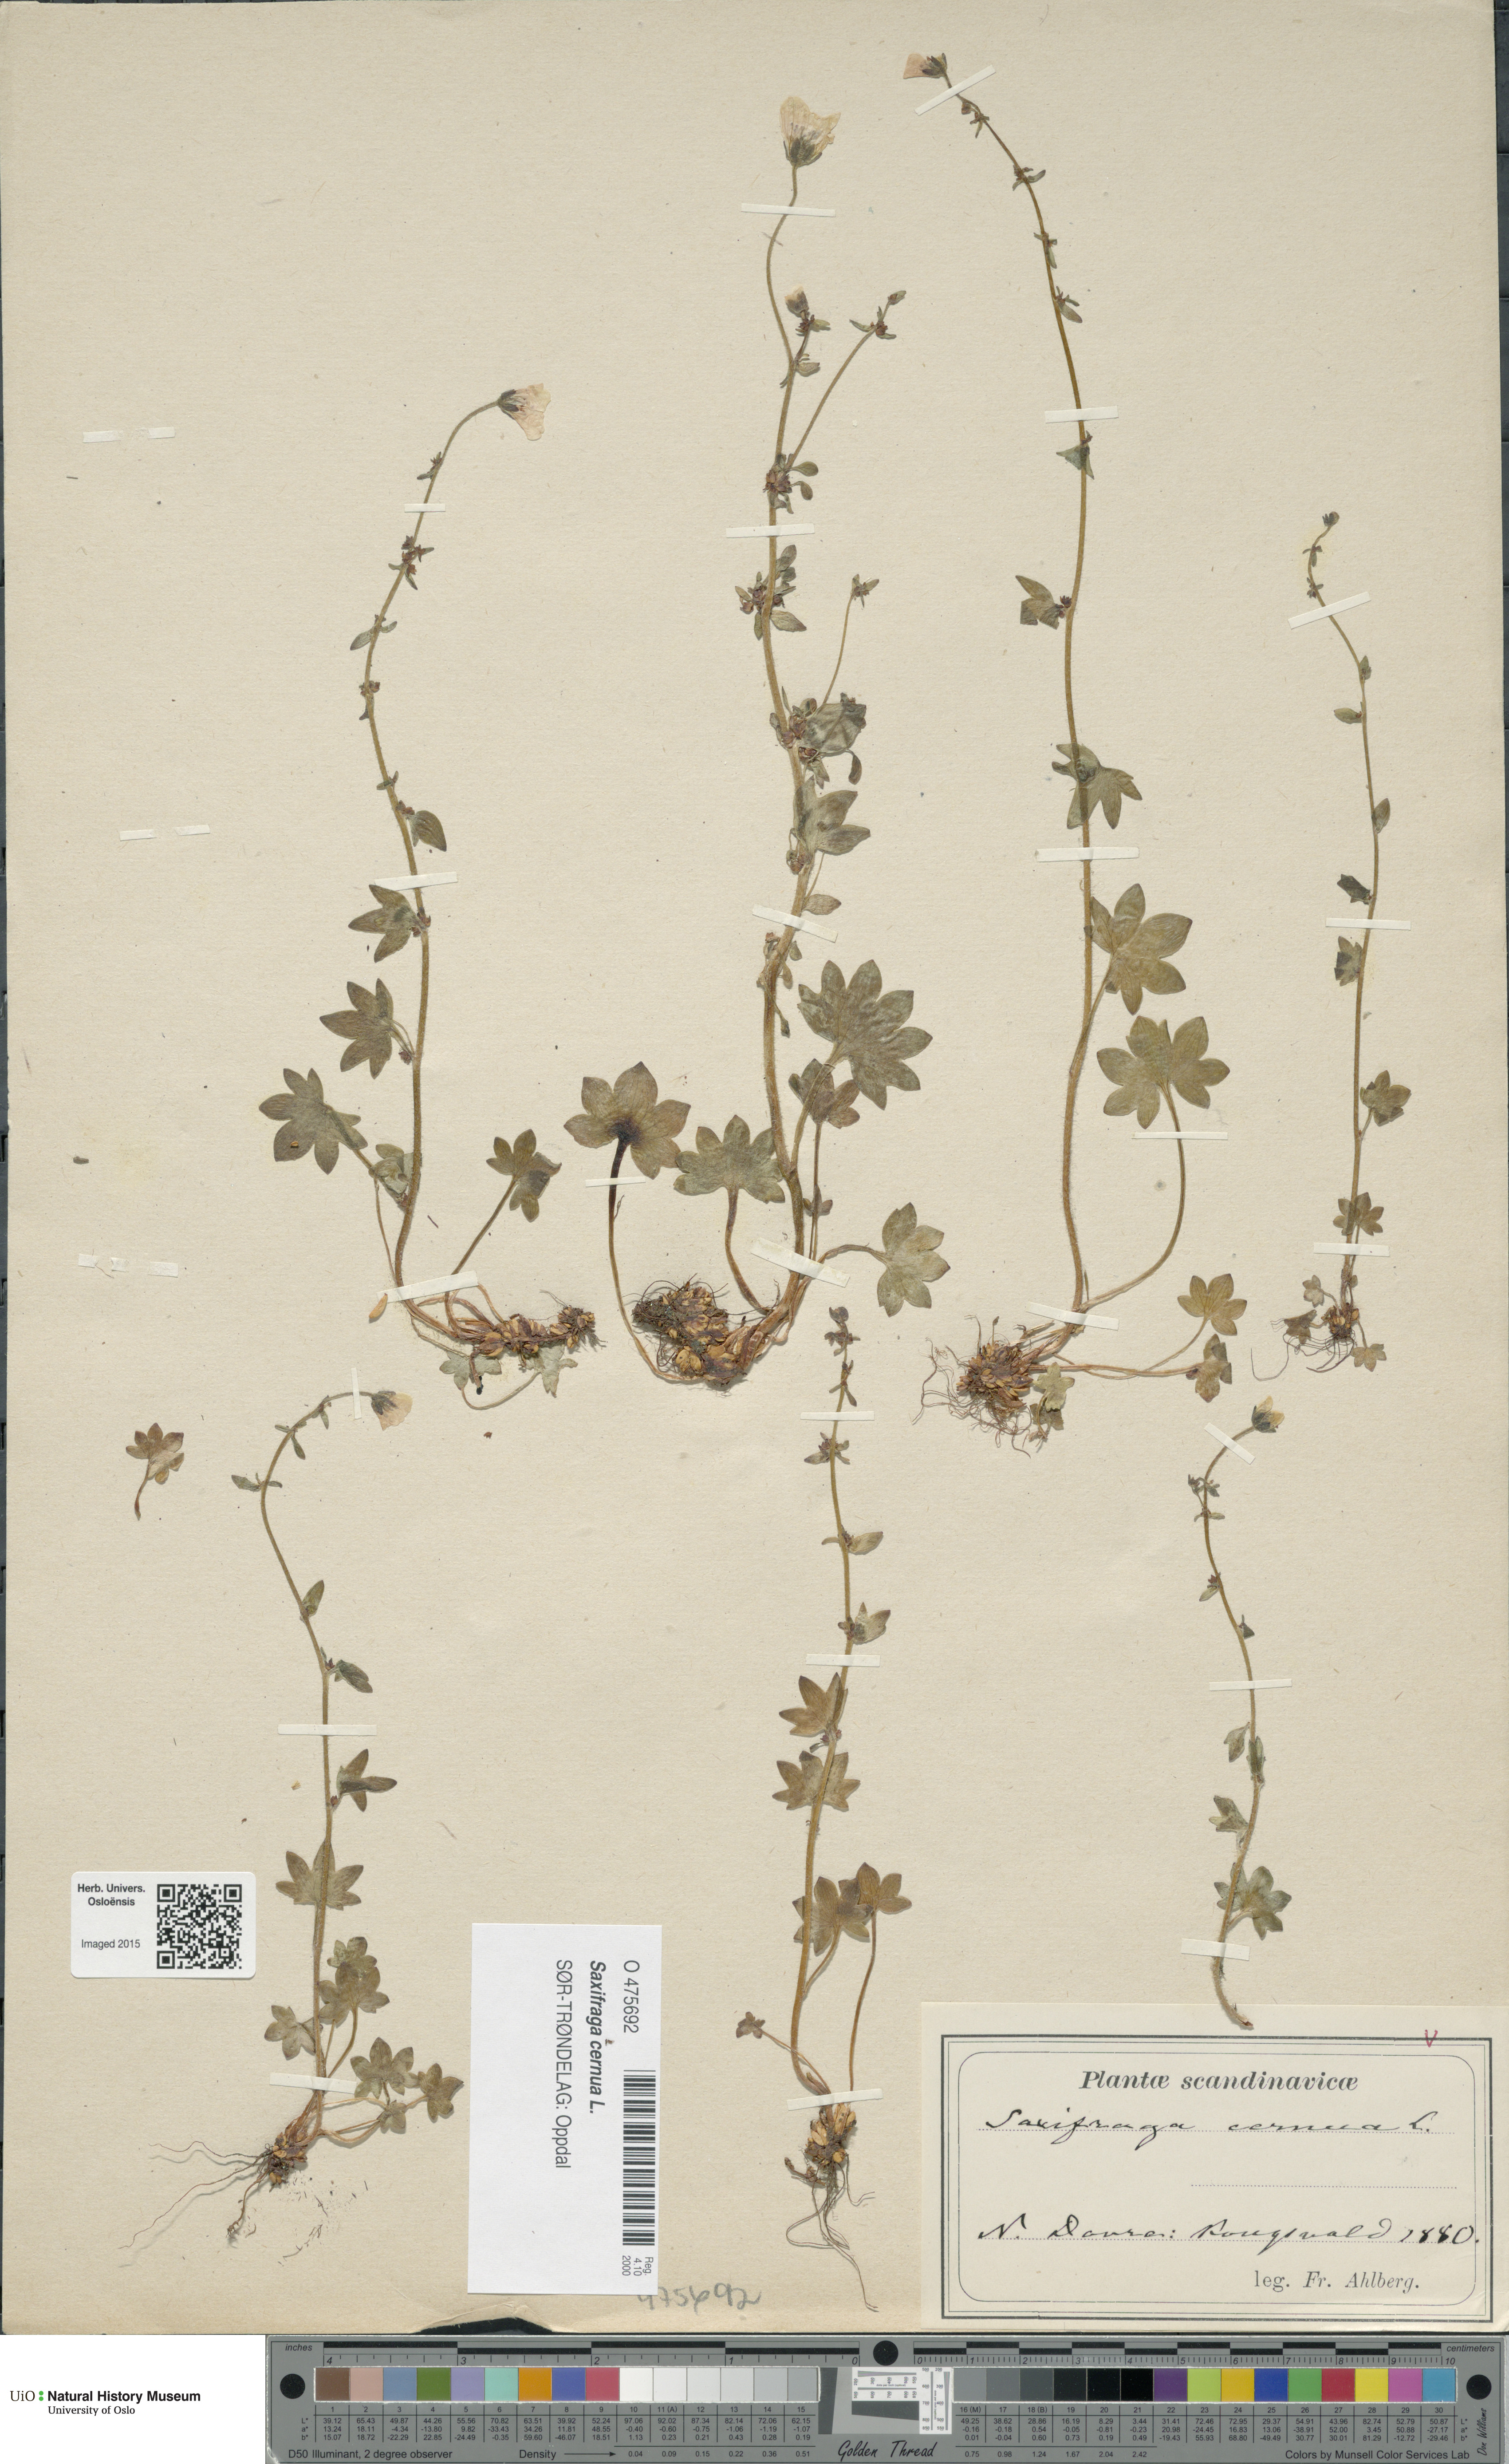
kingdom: Plantae
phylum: Tracheophyta
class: Magnoliopsida
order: Saxifragales
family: Saxifragaceae
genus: Saxifraga
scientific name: Saxifraga cernua
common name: Drooping saxifrage
